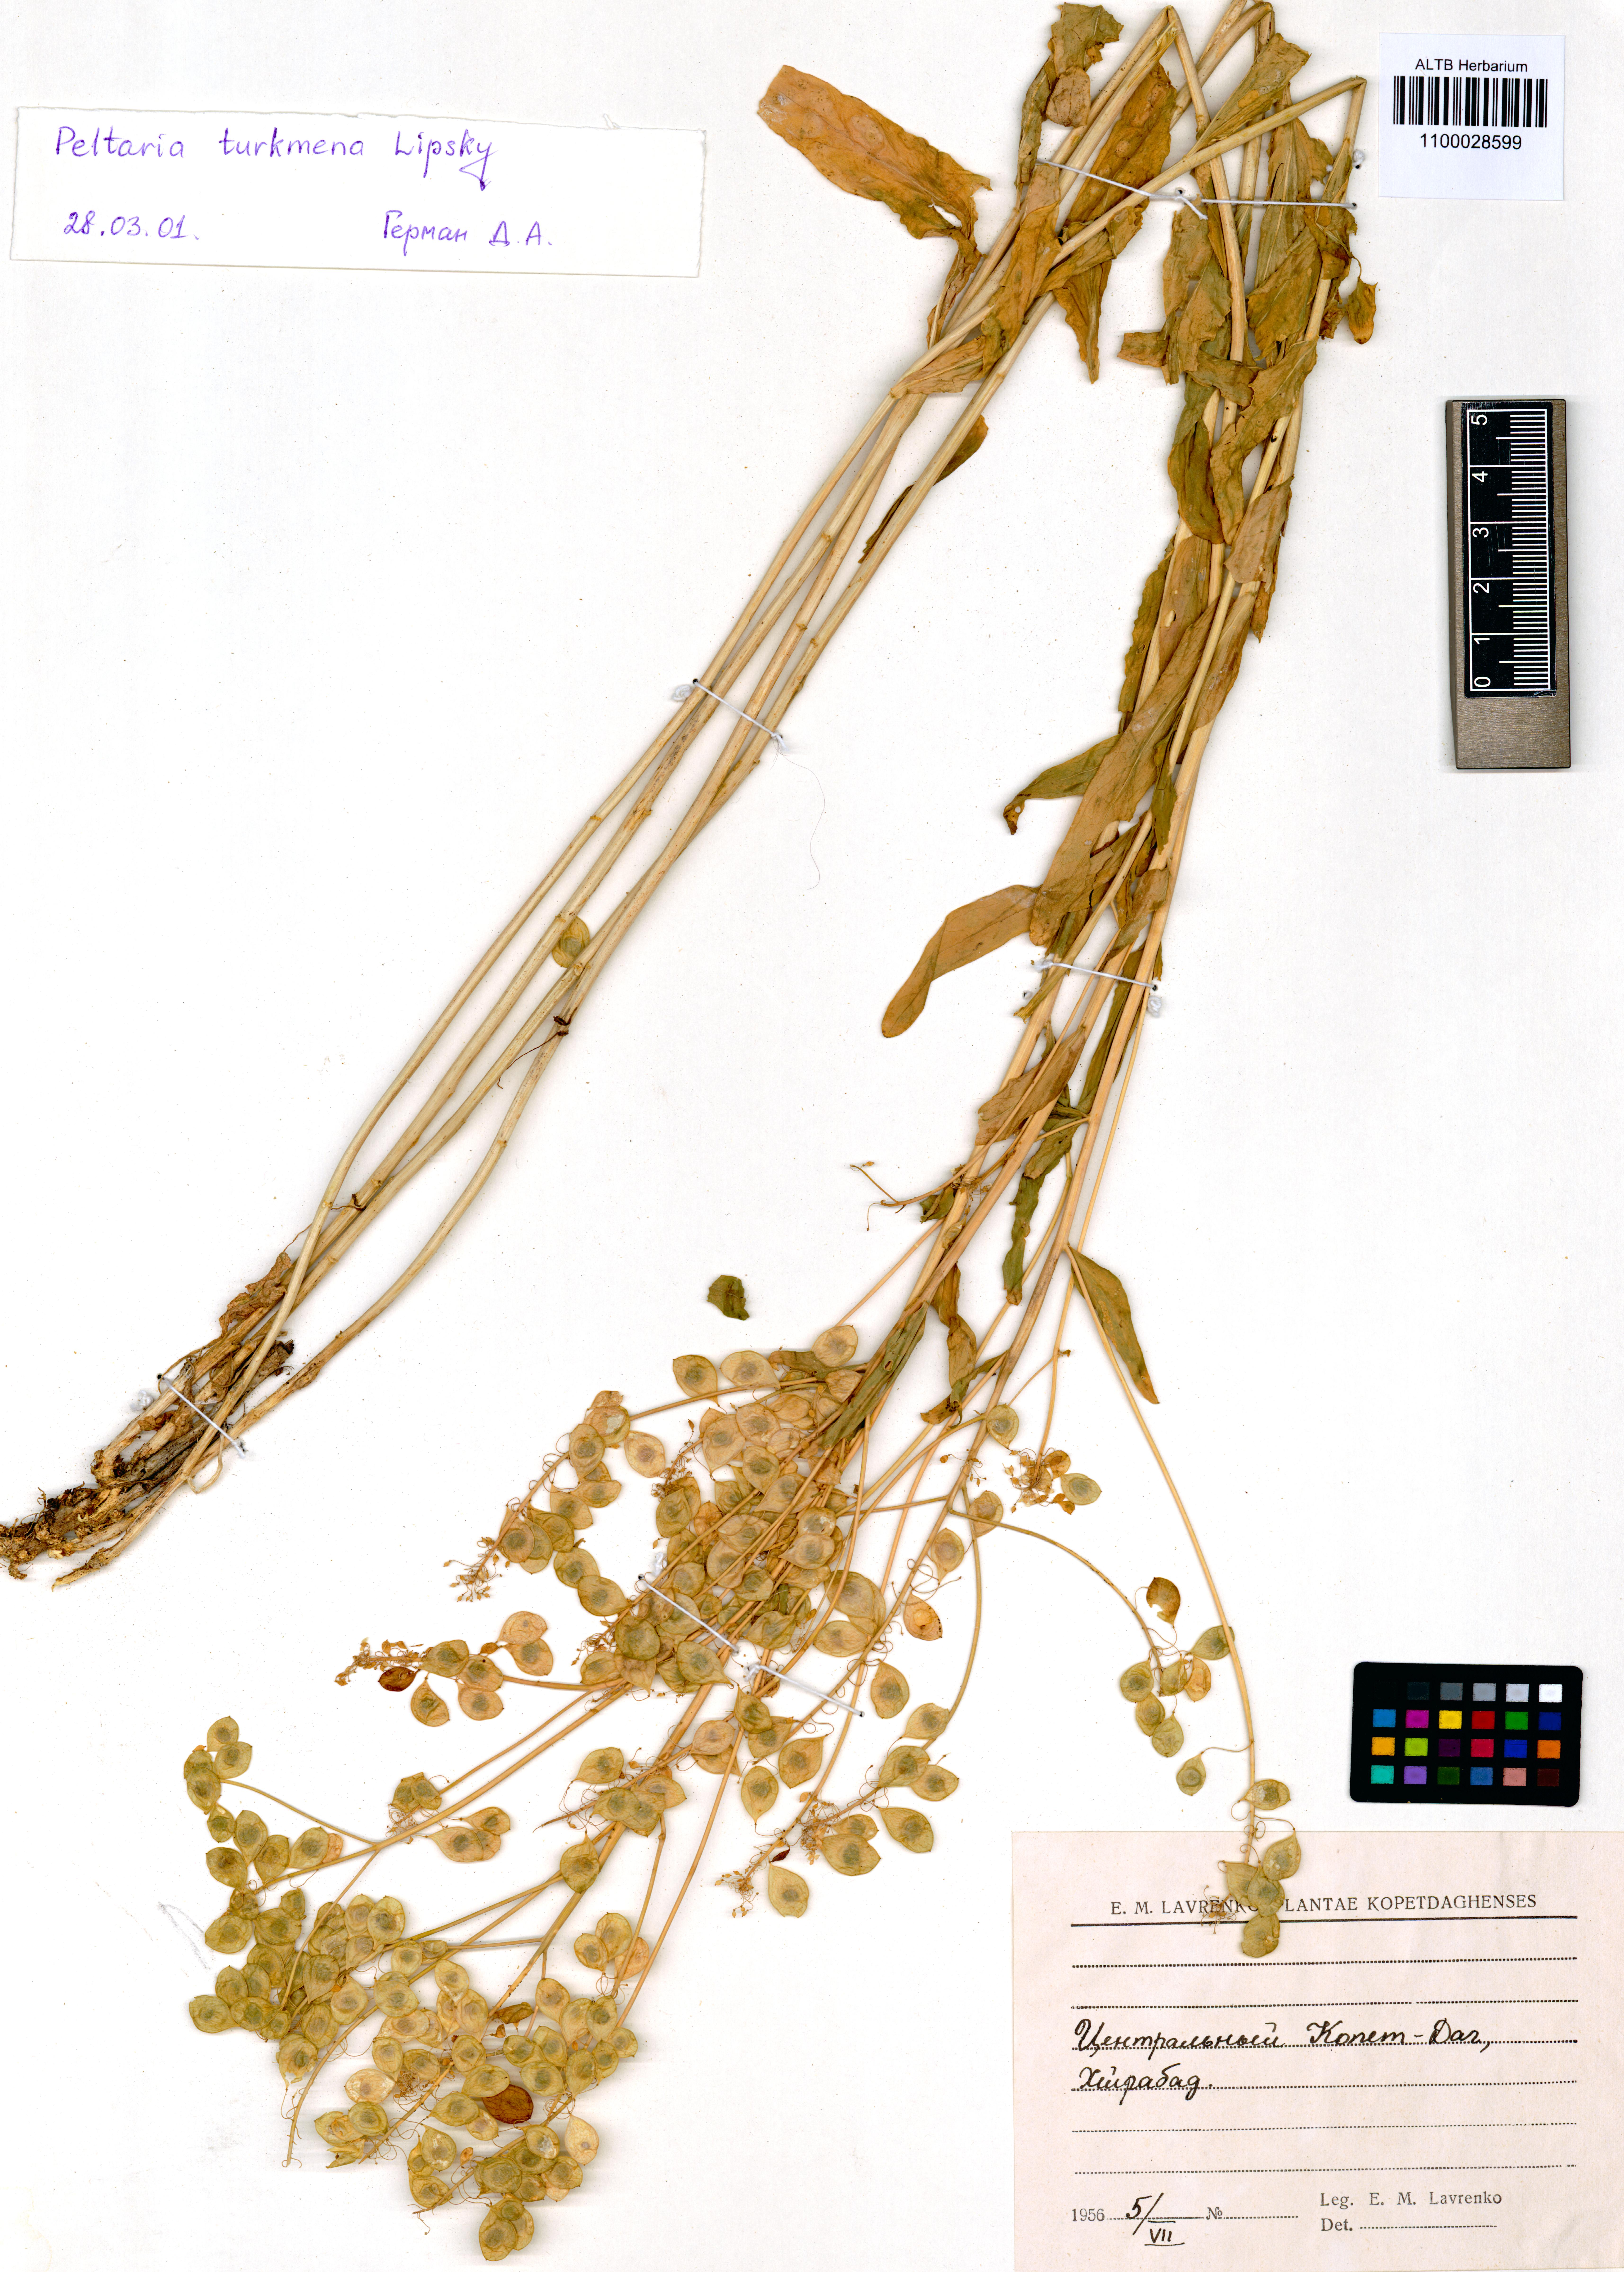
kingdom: Plantae
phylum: Tracheophyta
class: Magnoliopsida
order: Brassicales
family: Brassicaceae
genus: Peltaria
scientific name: Peltaria turkmena
